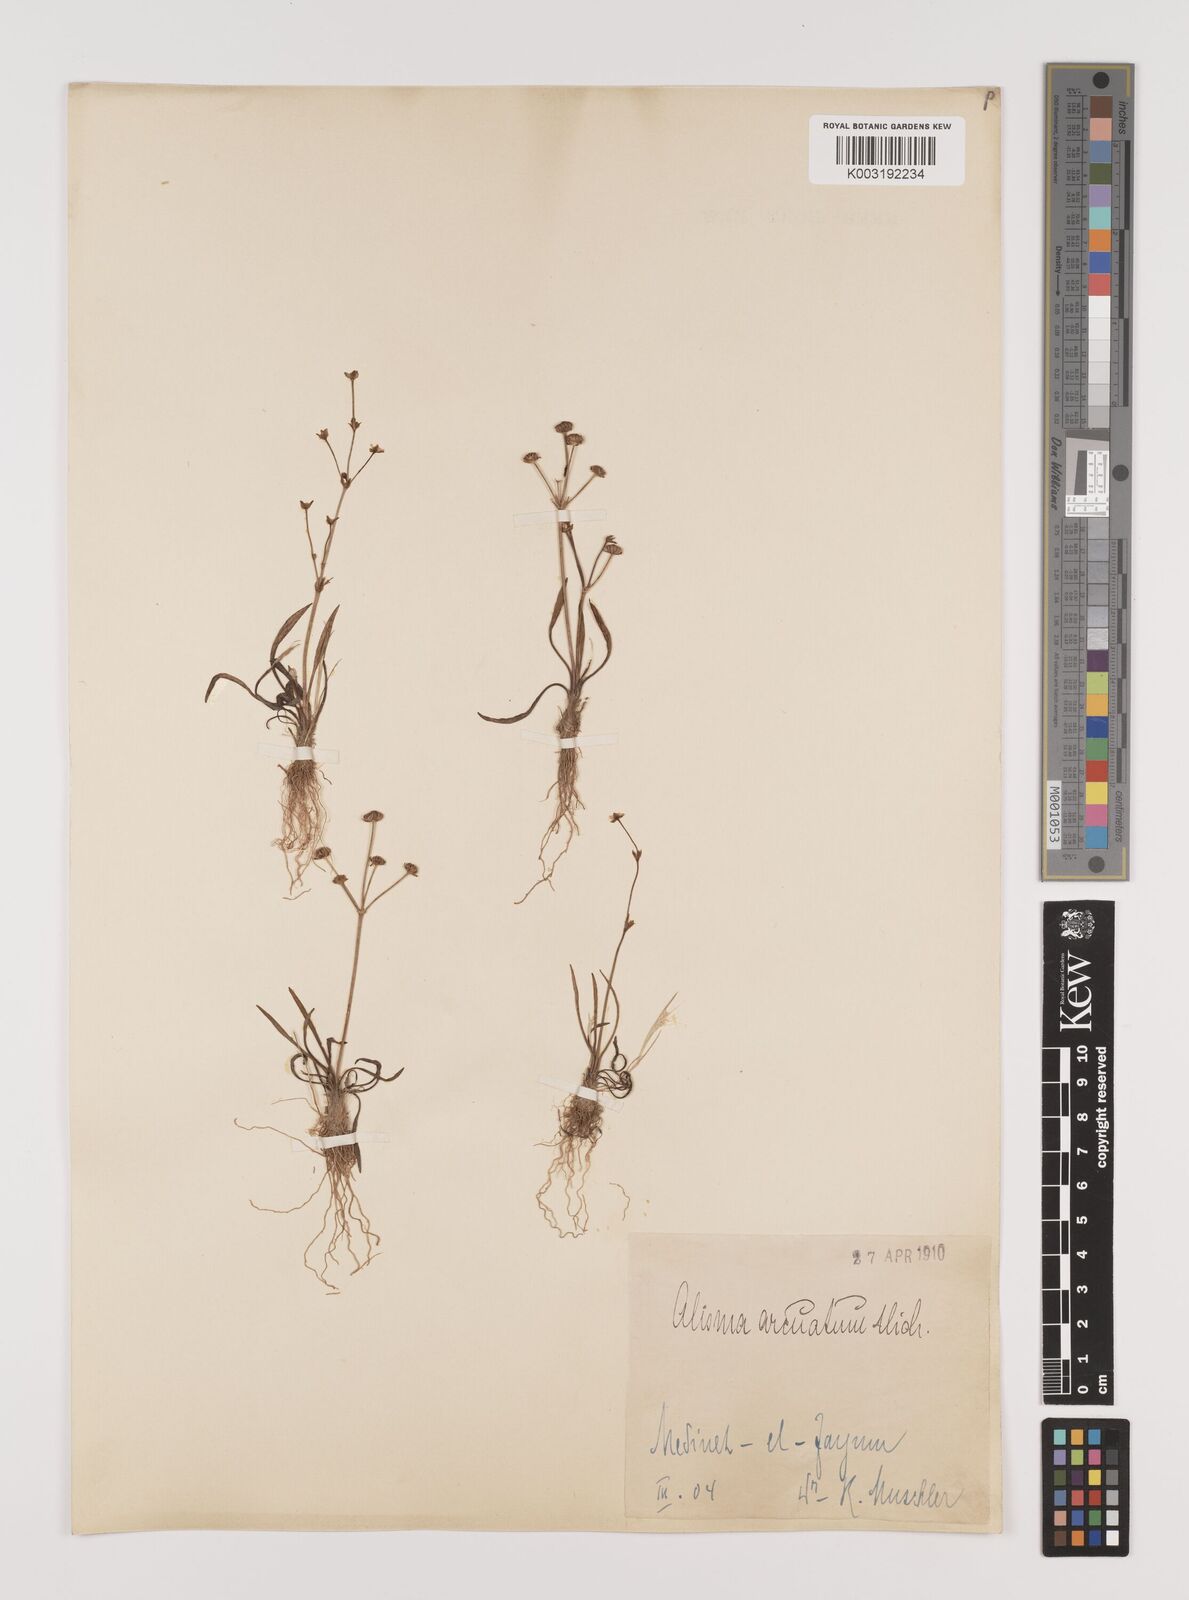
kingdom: Plantae
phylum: Tracheophyta
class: Liliopsida
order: Alismatales
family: Alismataceae
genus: Alisma
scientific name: Alisma gramineum
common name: Ribbon-leaved water-plantain
